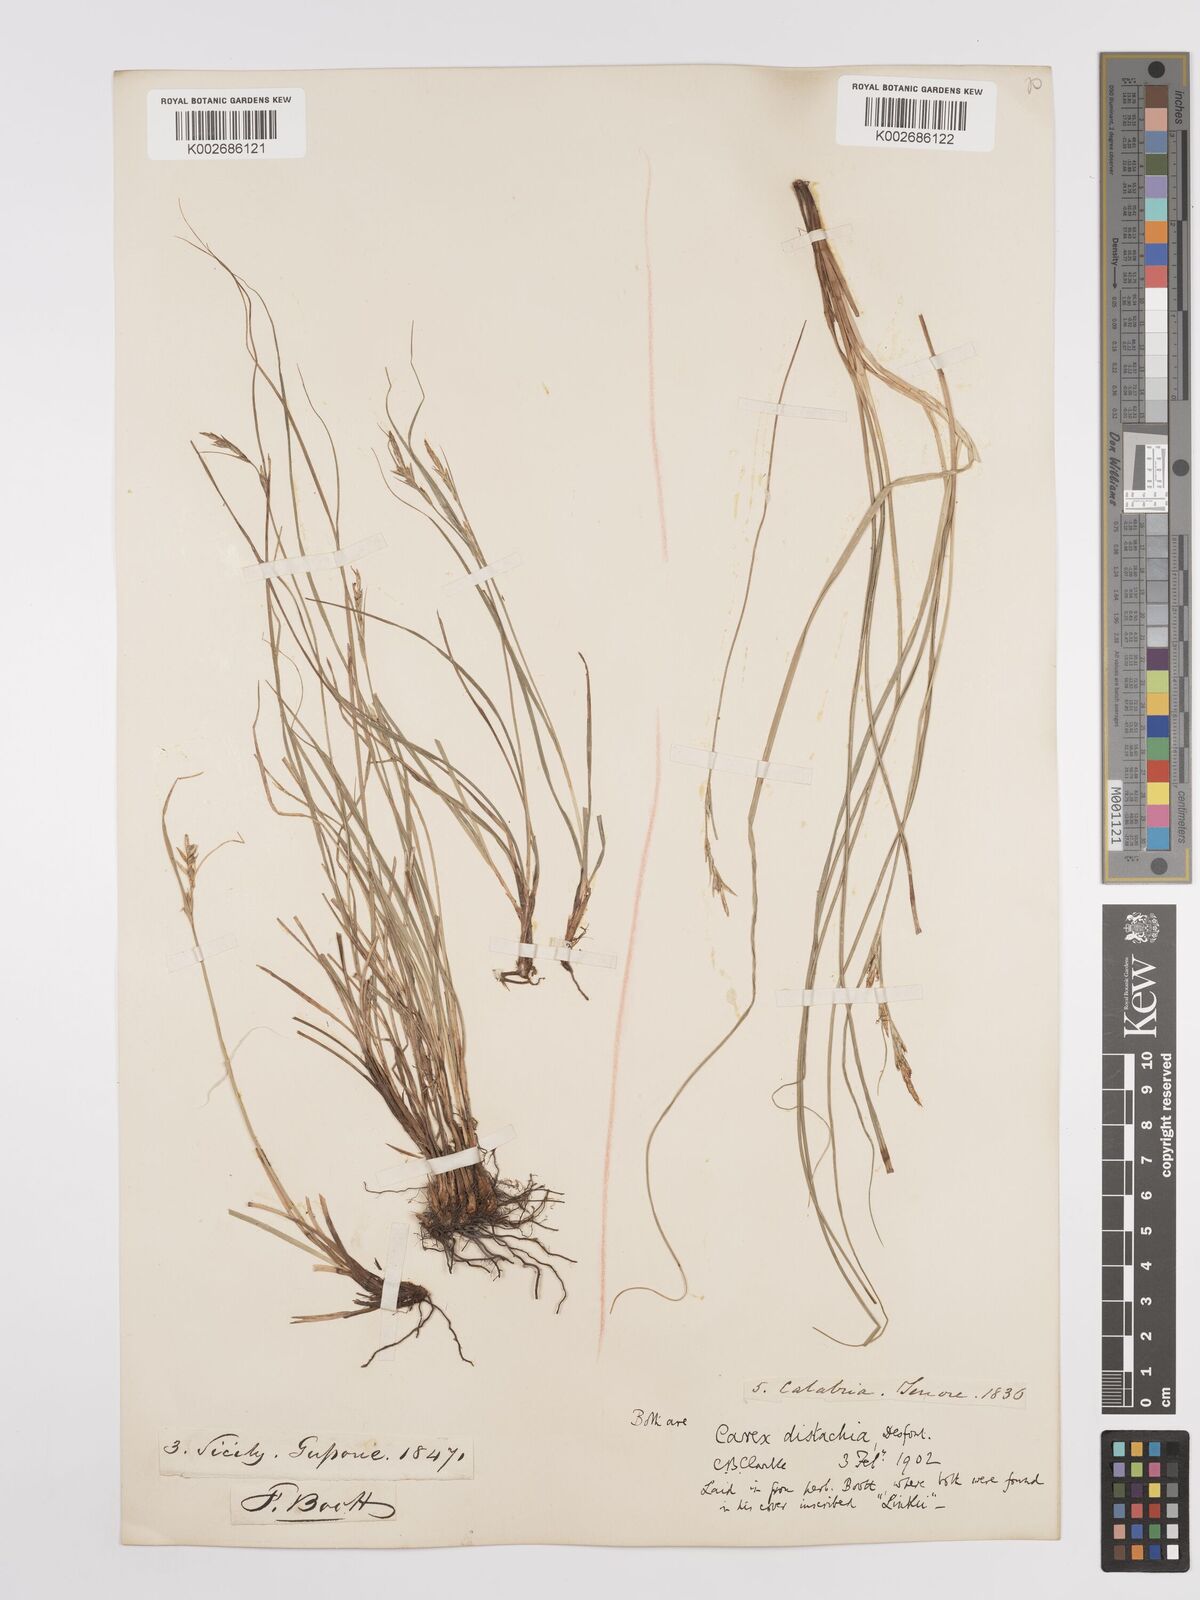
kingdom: Plantae
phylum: Tracheophyta
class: Liliopsida
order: Poales
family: Cyperaceae
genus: Carex
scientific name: Carex distachya
